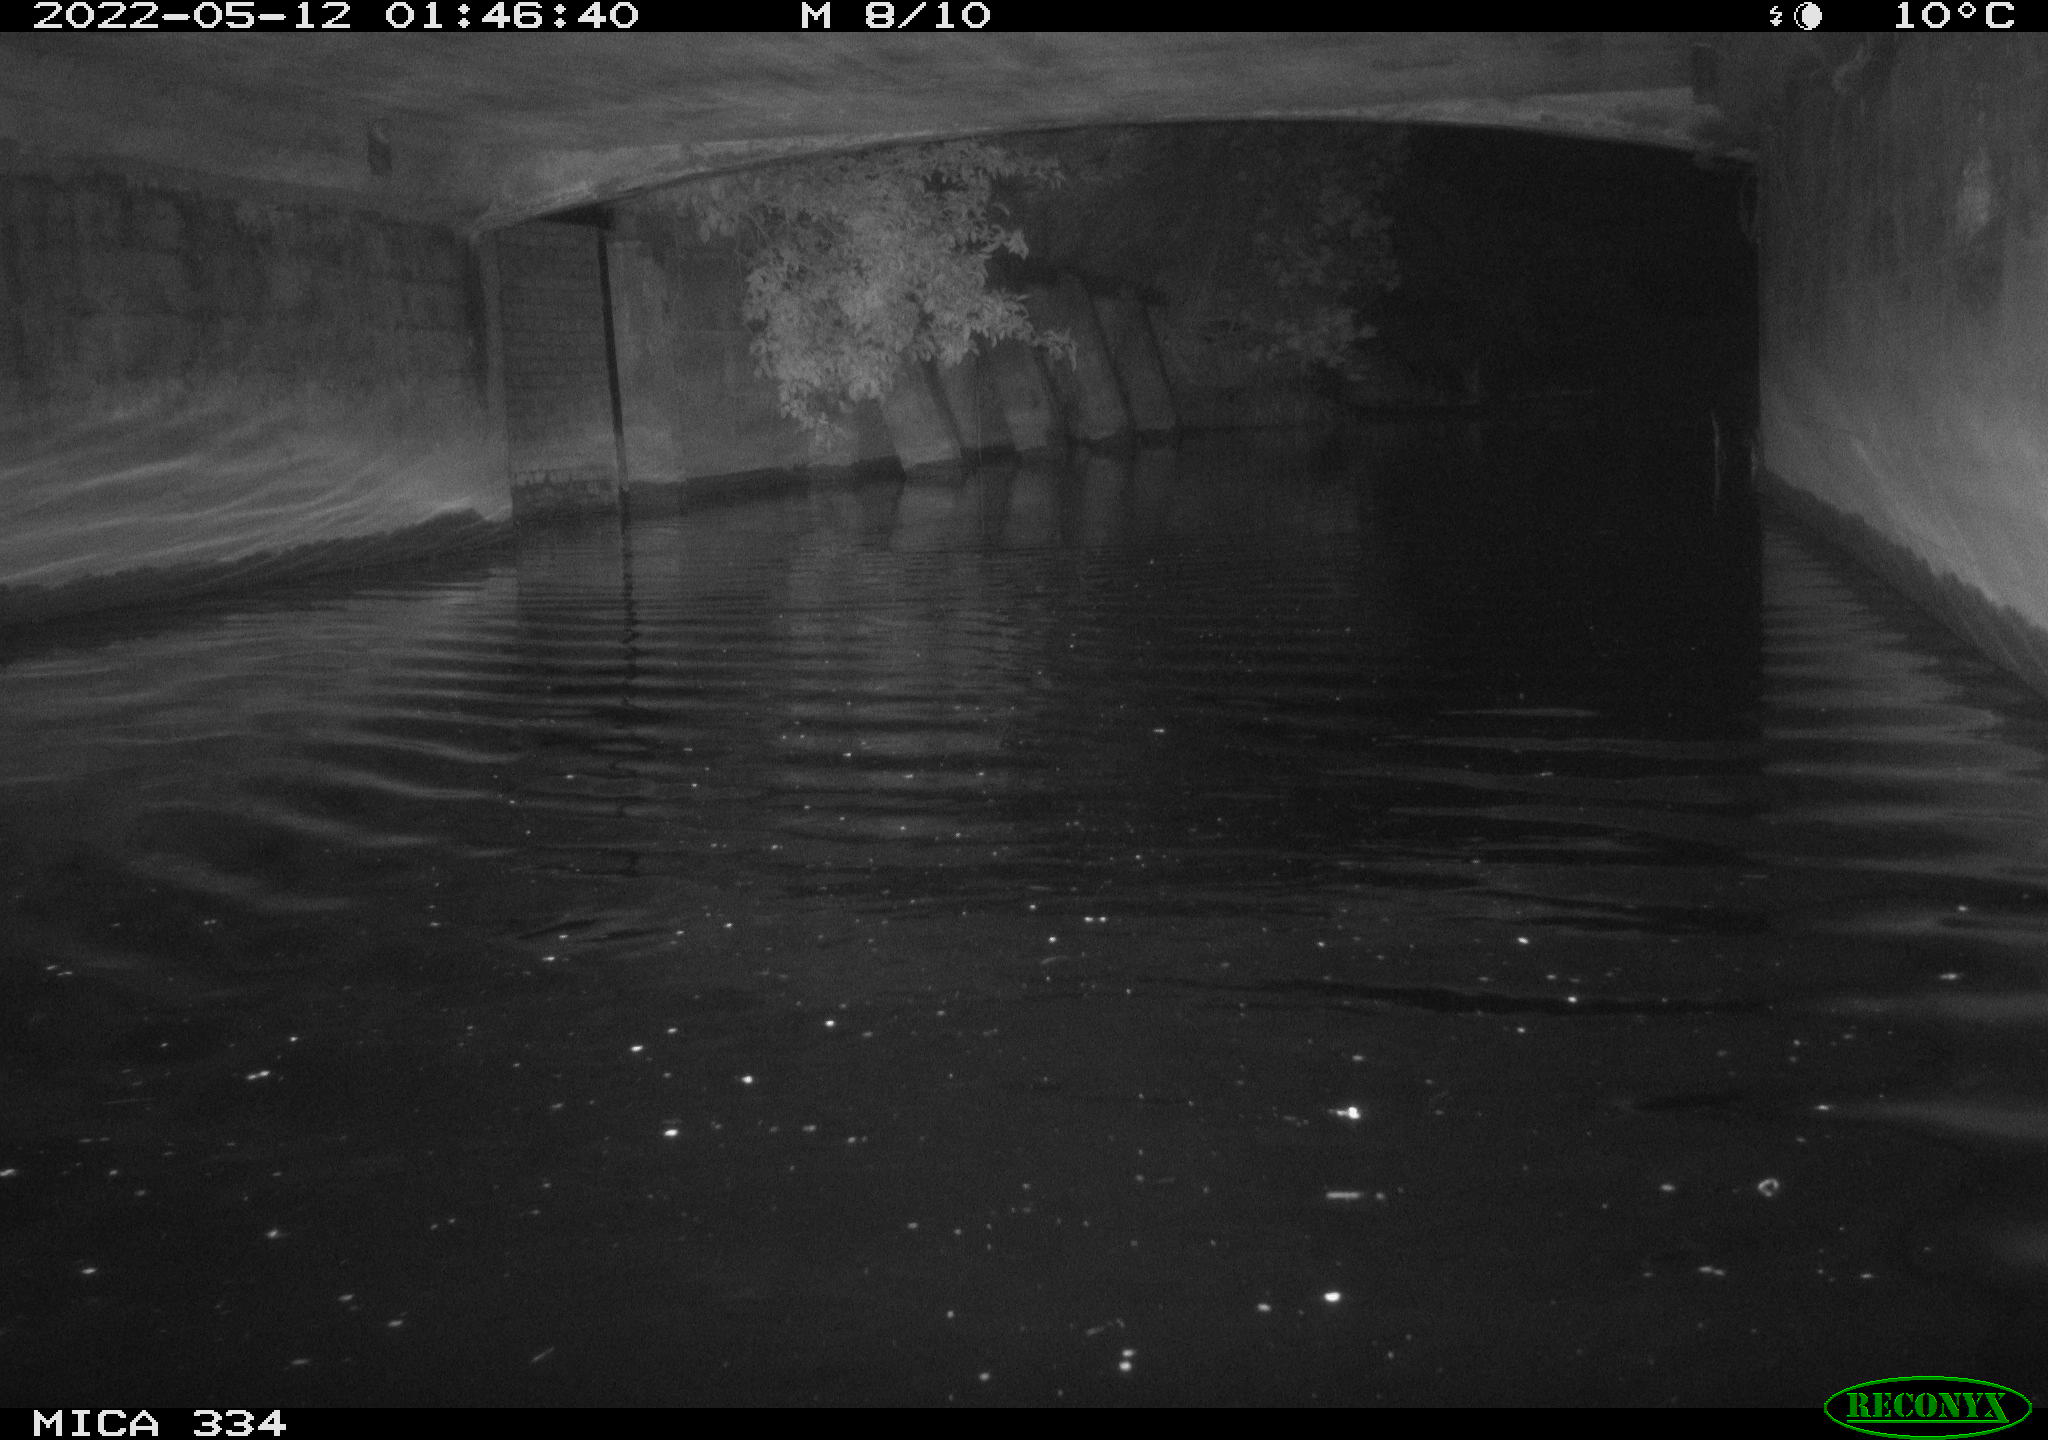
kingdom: Animalia
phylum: Chordata
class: Aves
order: Anseriformes
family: Anatidae
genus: Anas
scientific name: Anas platyrhynchos
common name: Mallard
